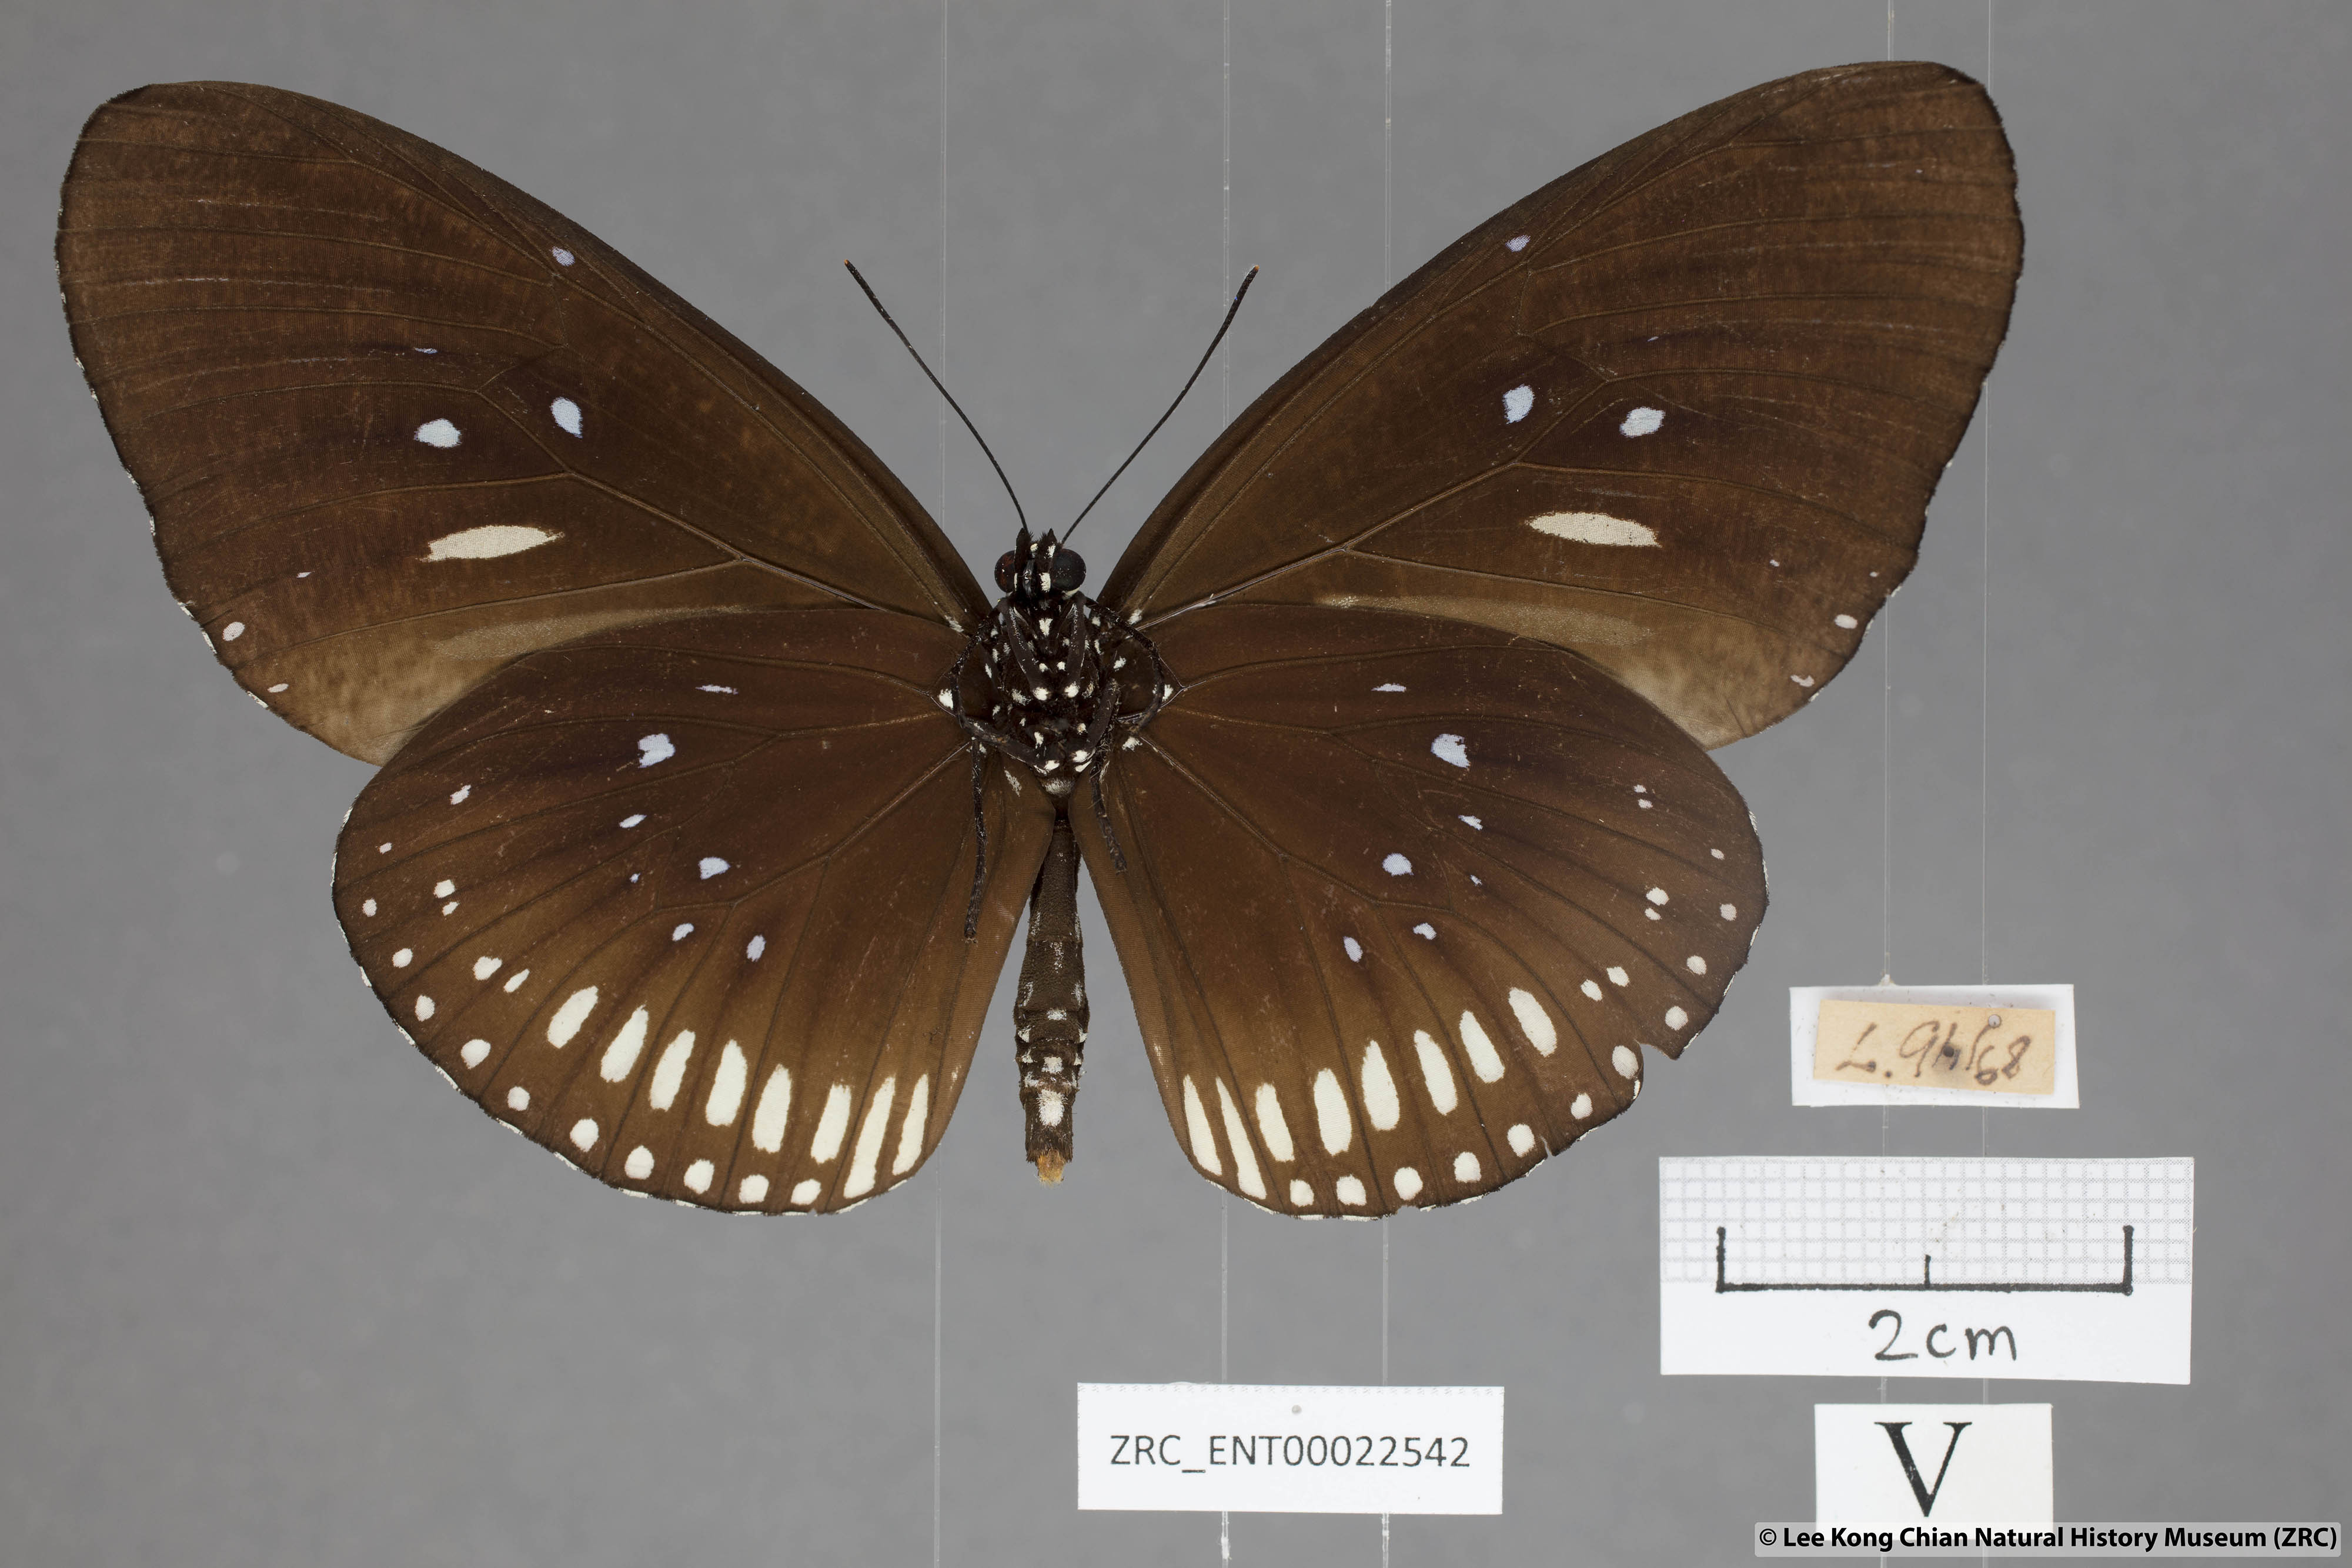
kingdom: Animalia
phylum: Arthropoda
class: Insecta
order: Lepidoptera
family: Nymphalidae
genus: Euploea
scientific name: Euploea algea
